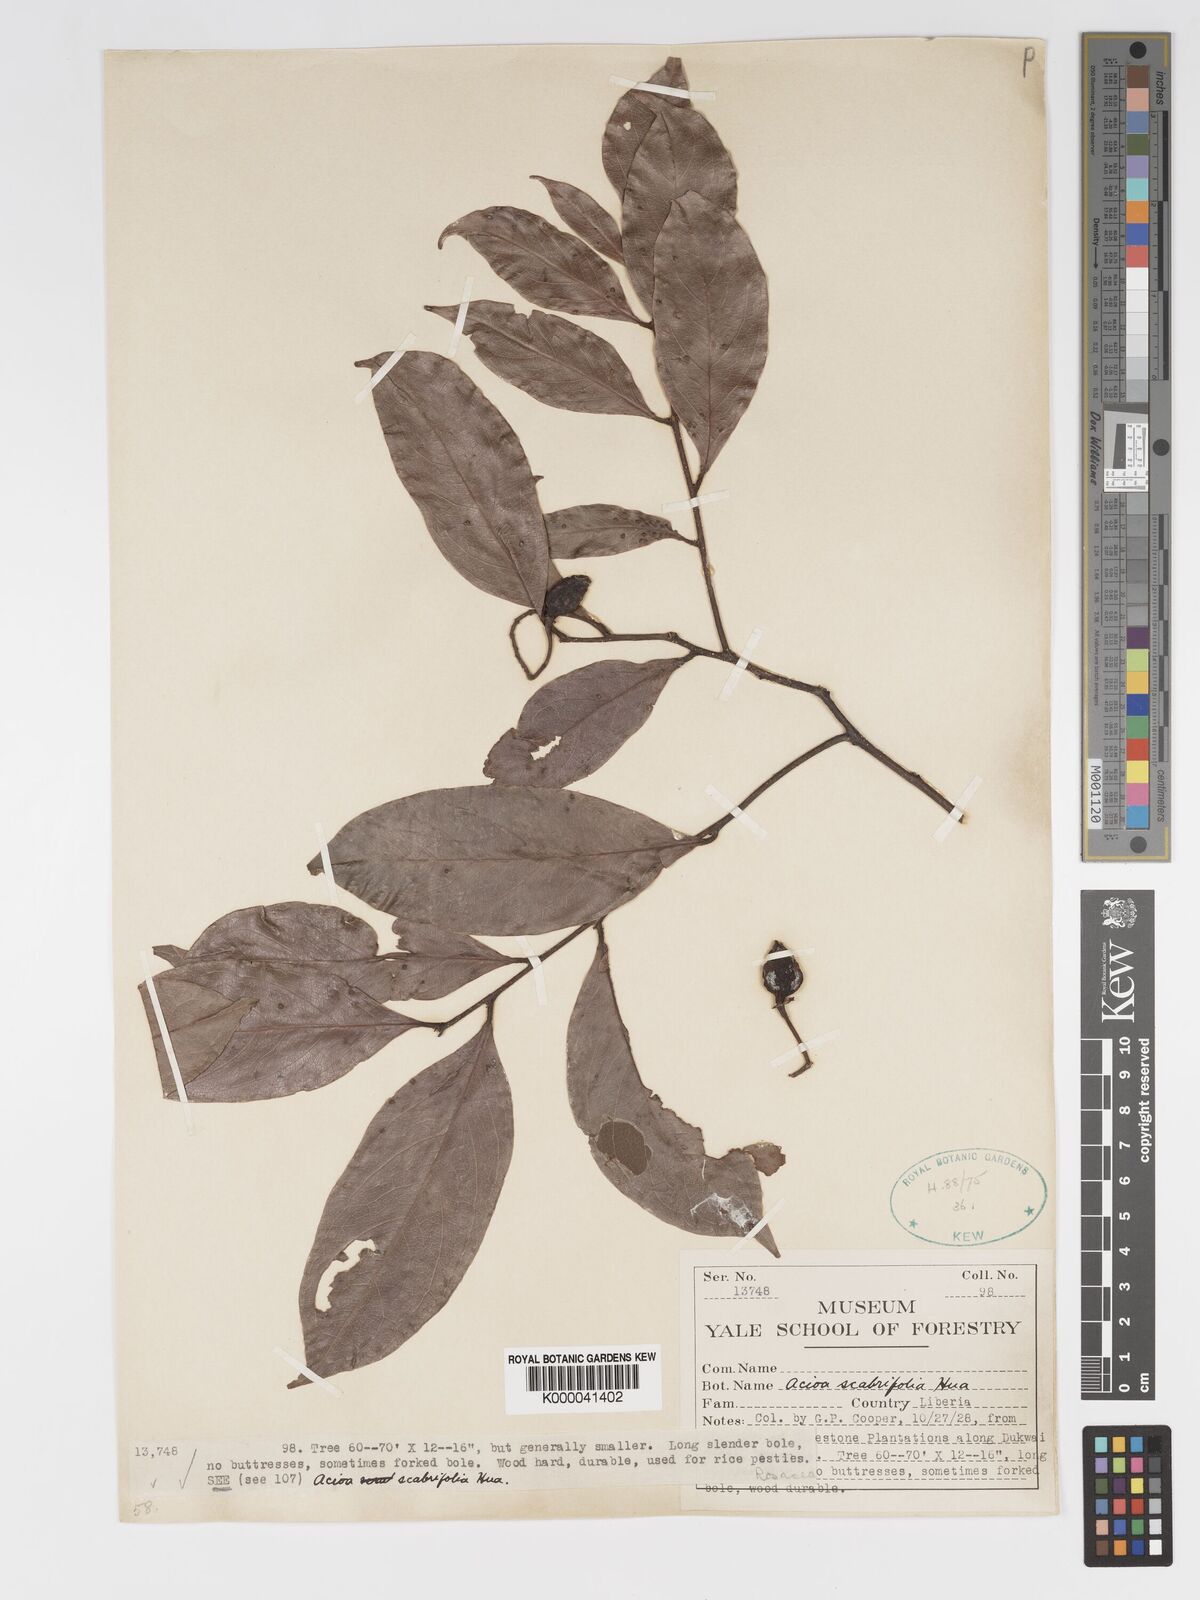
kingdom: Plantae
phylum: Tracheophyta
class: Magnoliopsida
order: Malpighiales
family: Chrysobalanaceae
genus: Dactyladenia
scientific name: Dactyladenia scabrifolia
